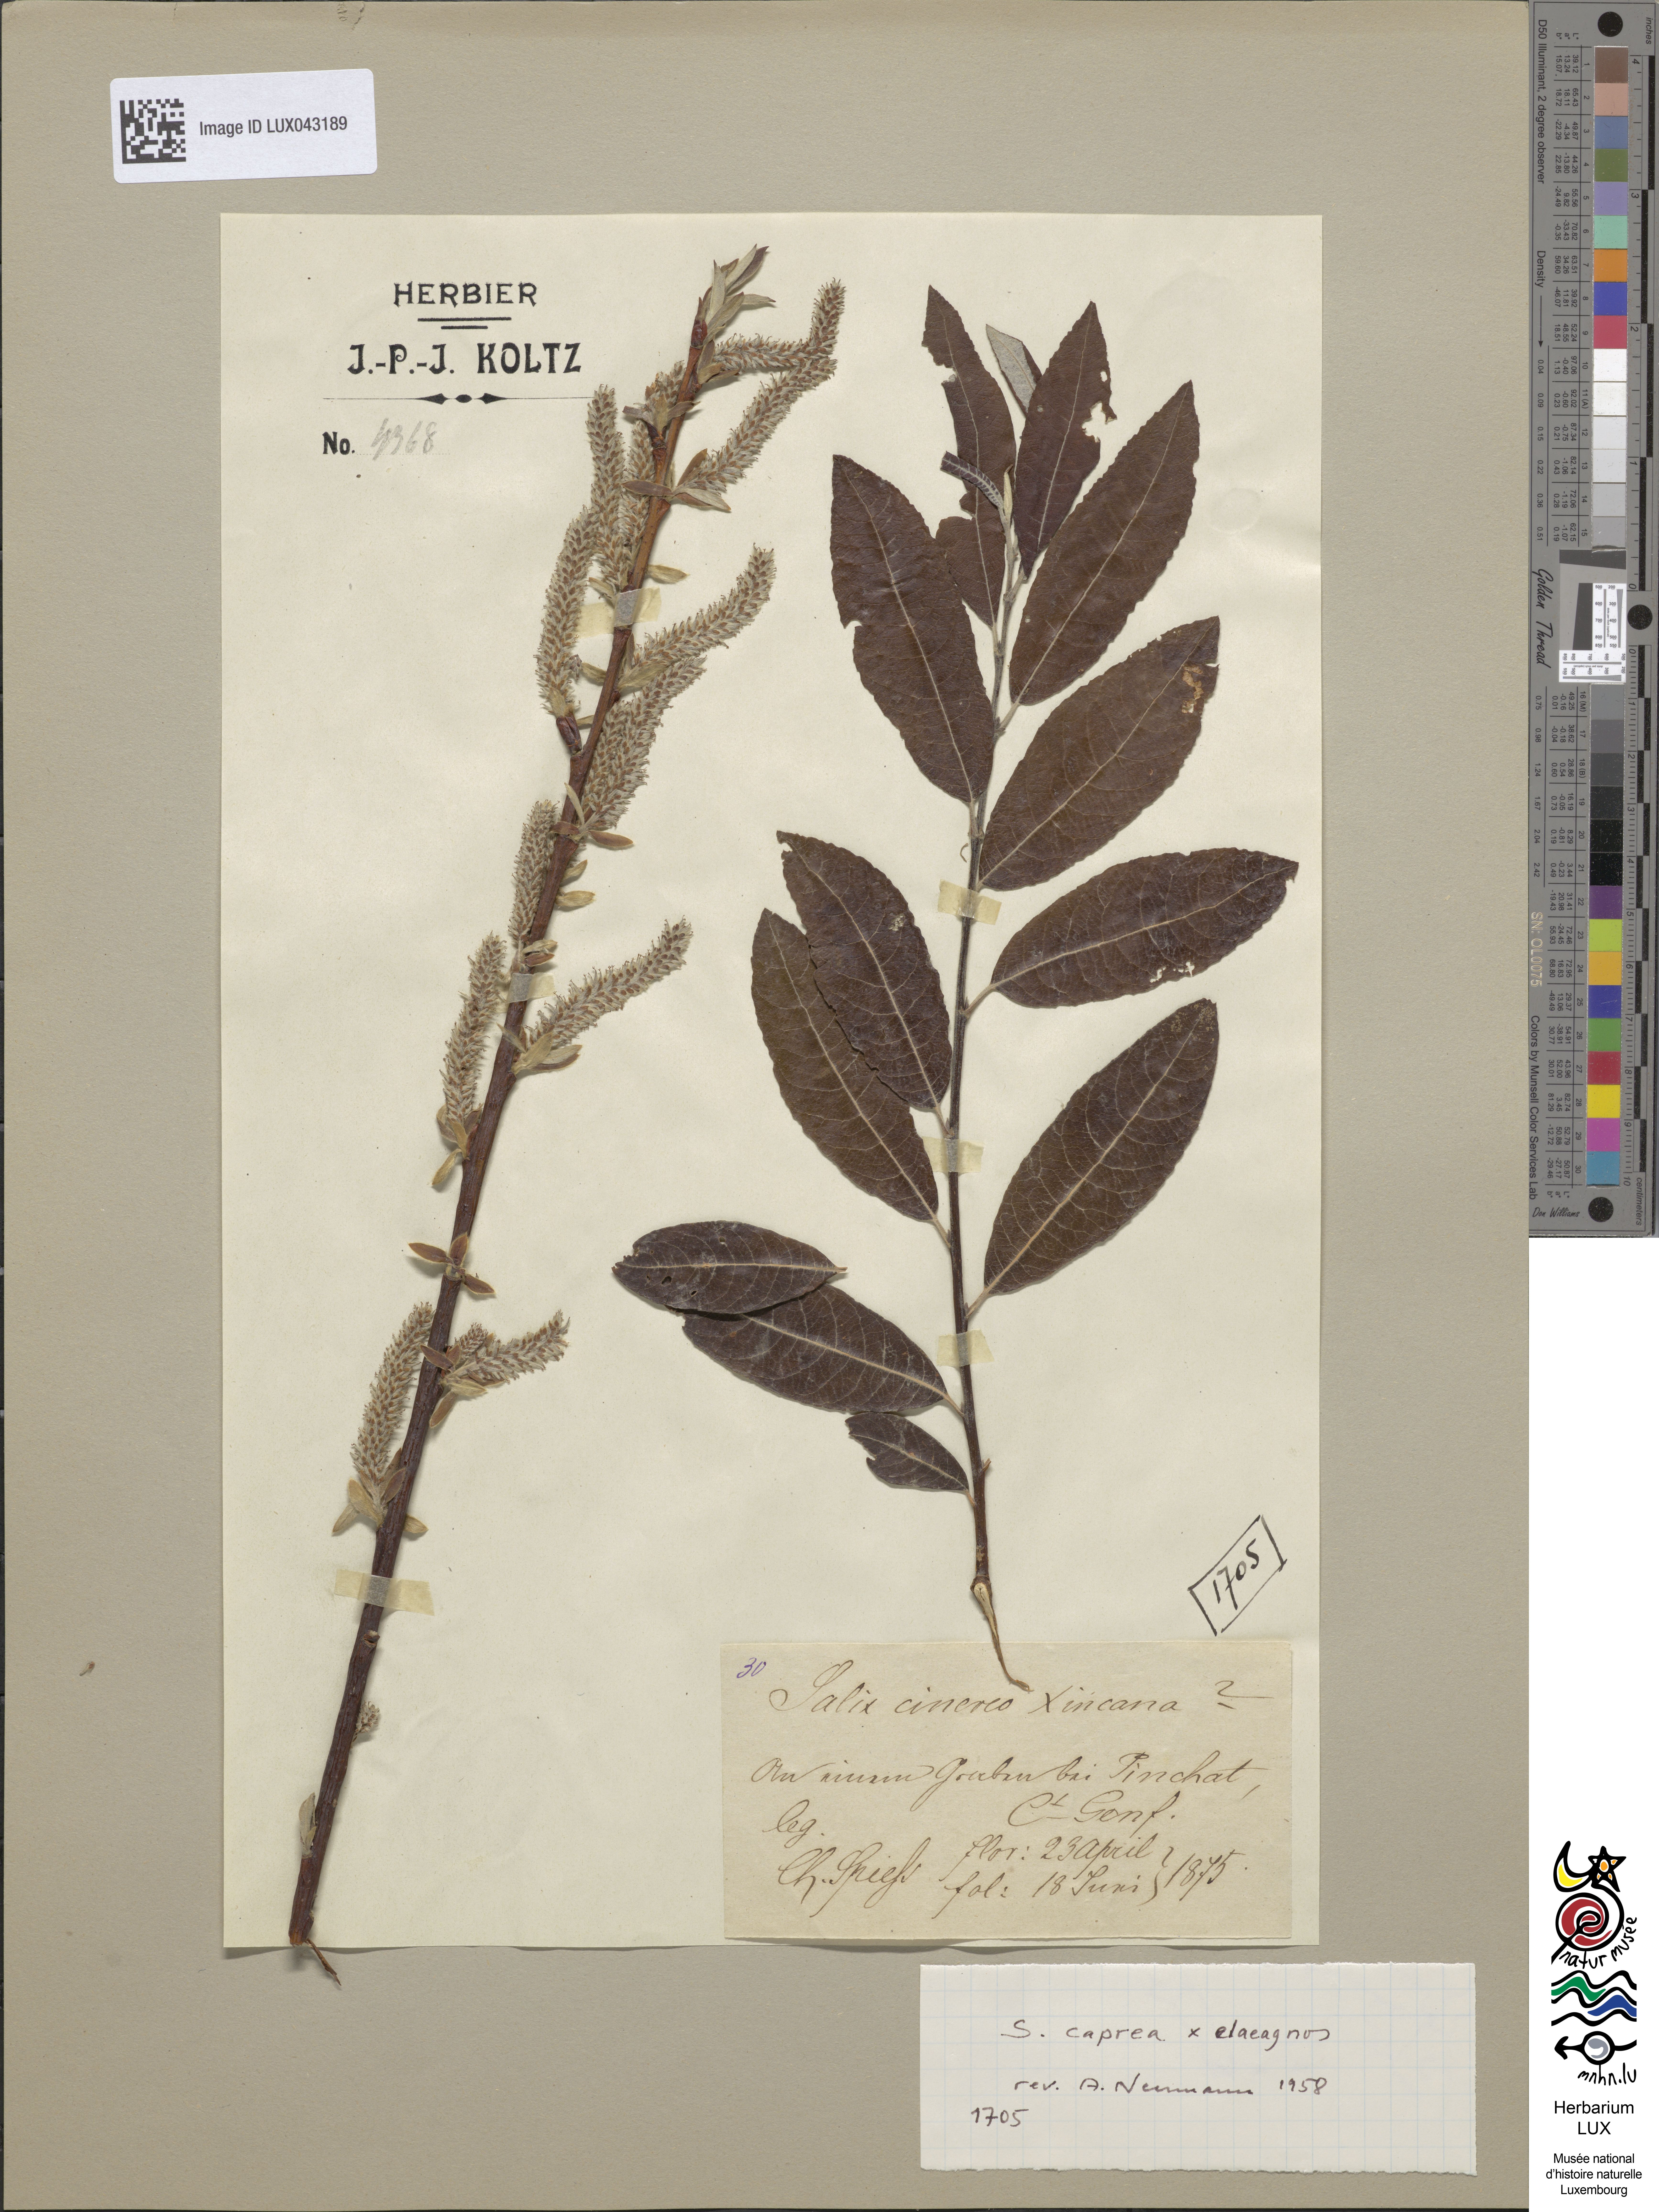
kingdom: Plantae
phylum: Tracheophyta
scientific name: Tracheophyta
